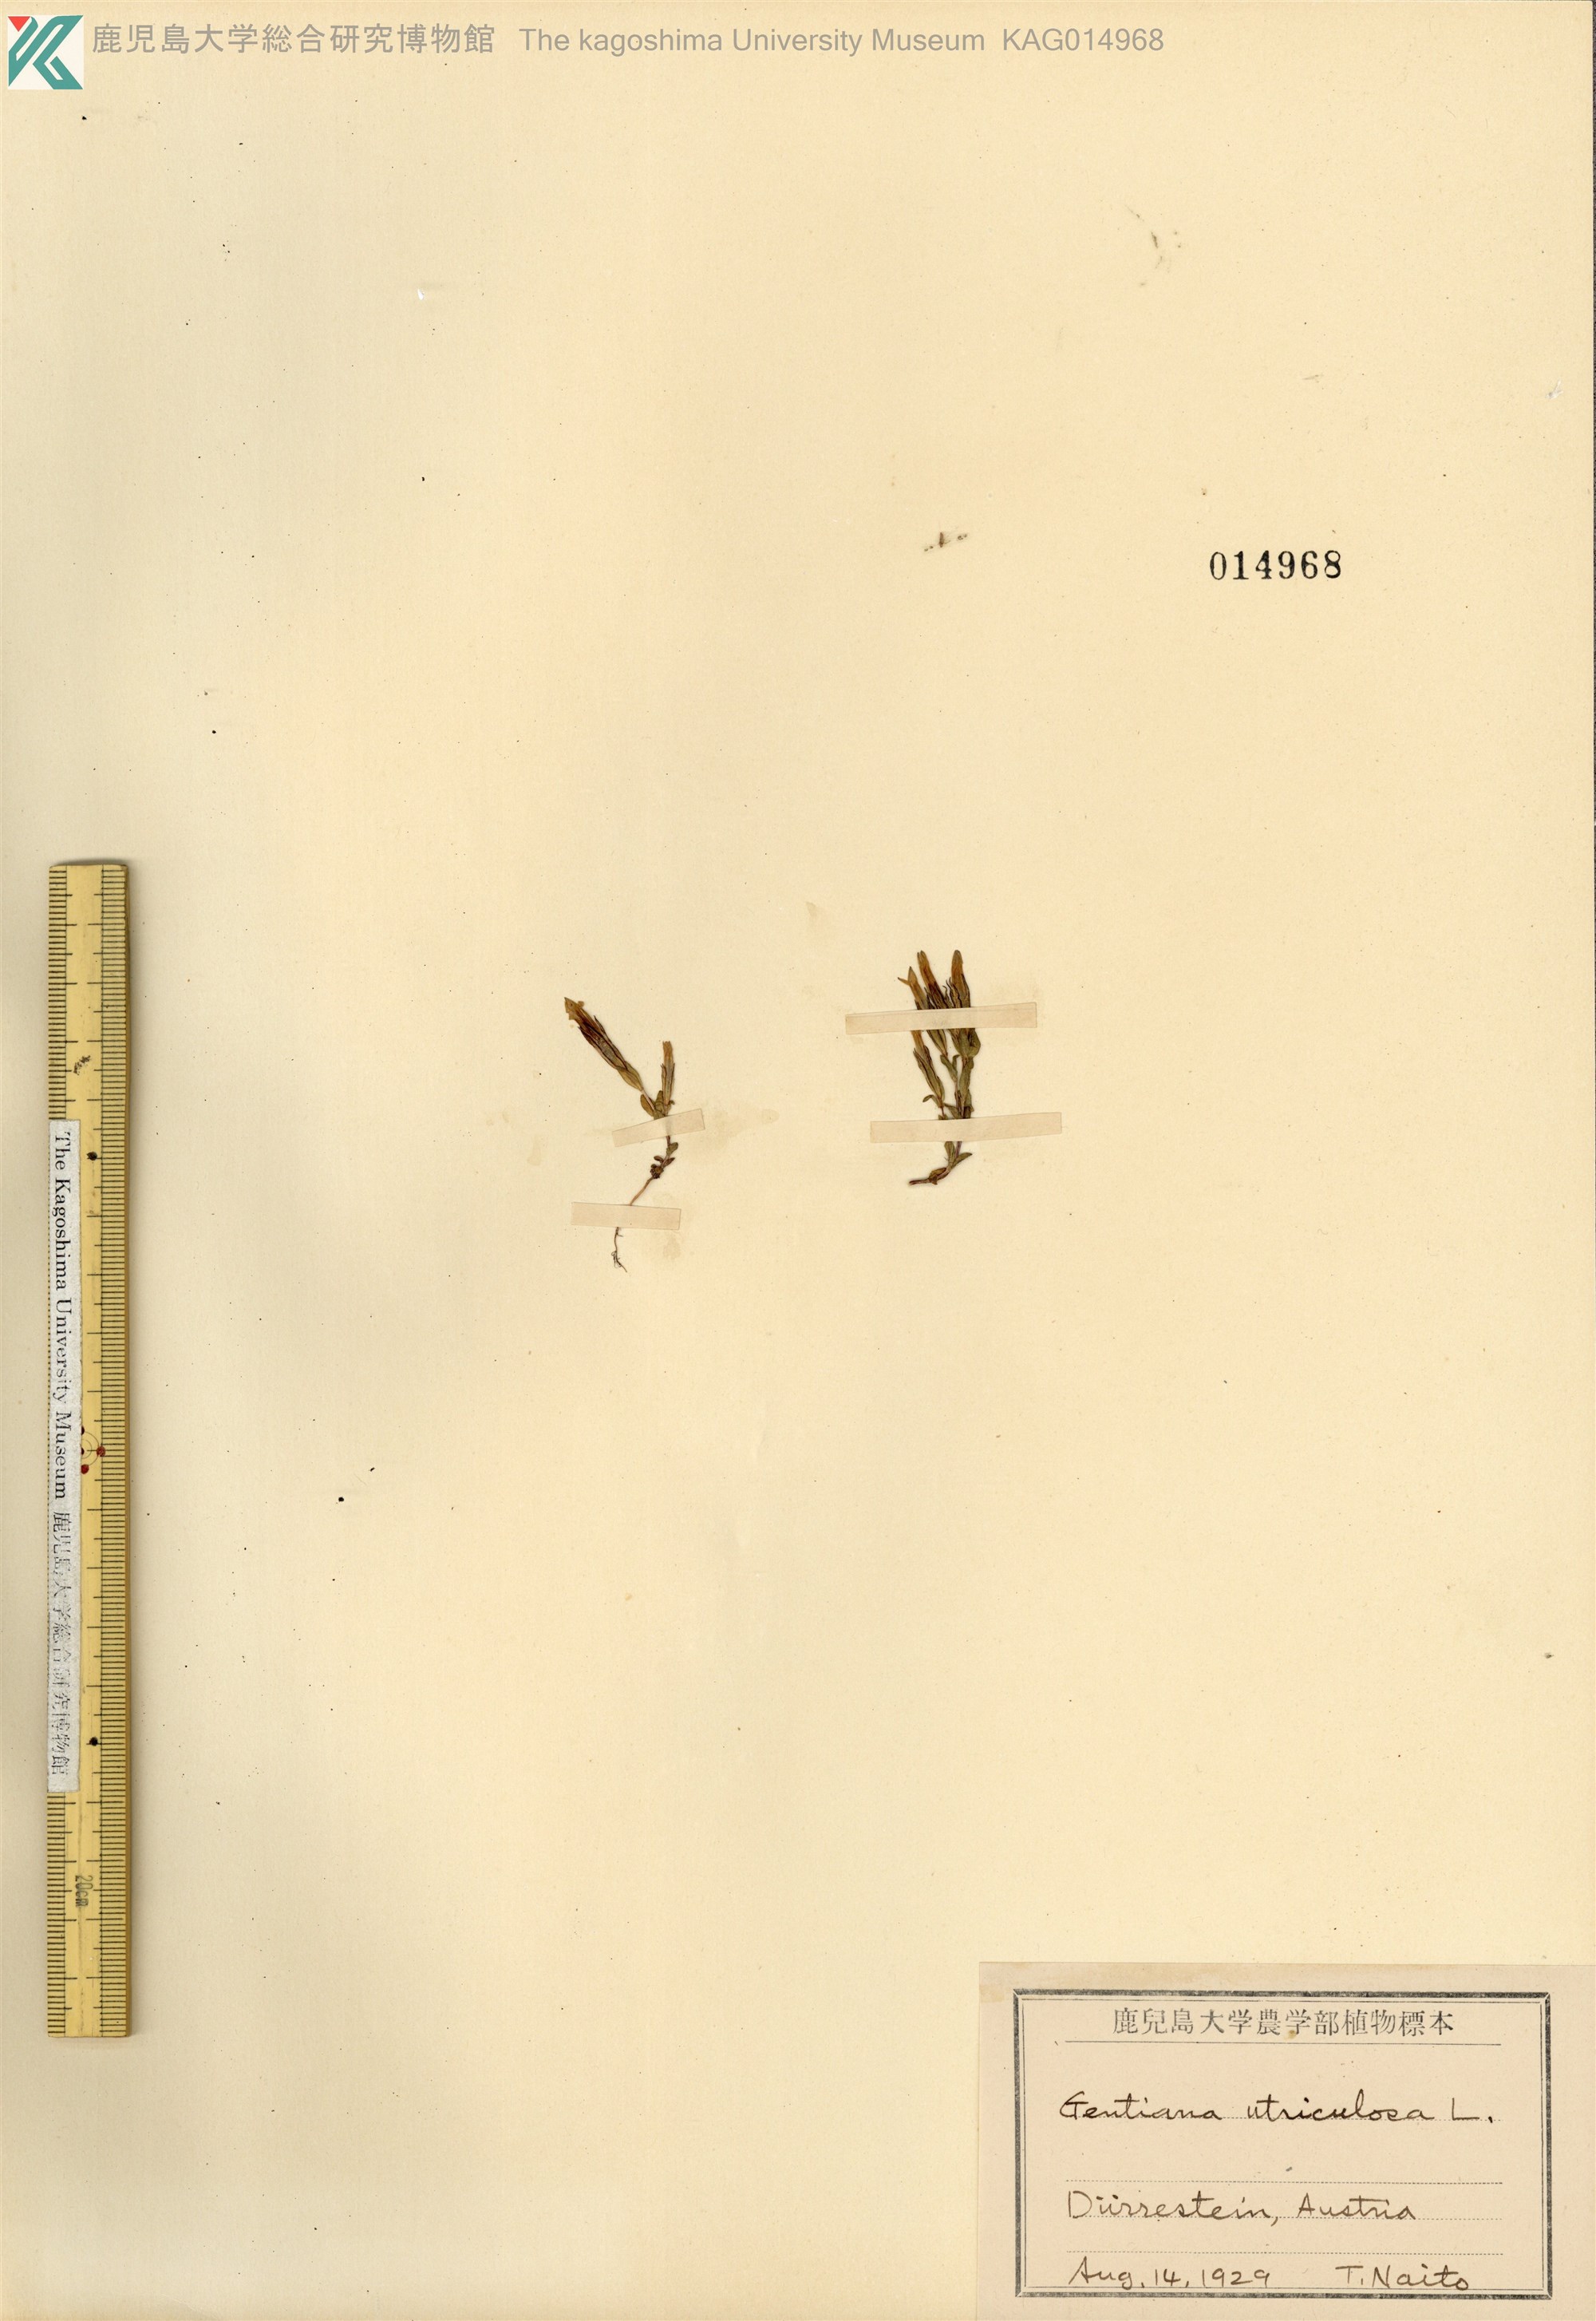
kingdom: Plantae
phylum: Tracheophyta
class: Magnoliopsida
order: Gentianales
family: Gentianaceae
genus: Gentiana
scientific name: Gentiana
